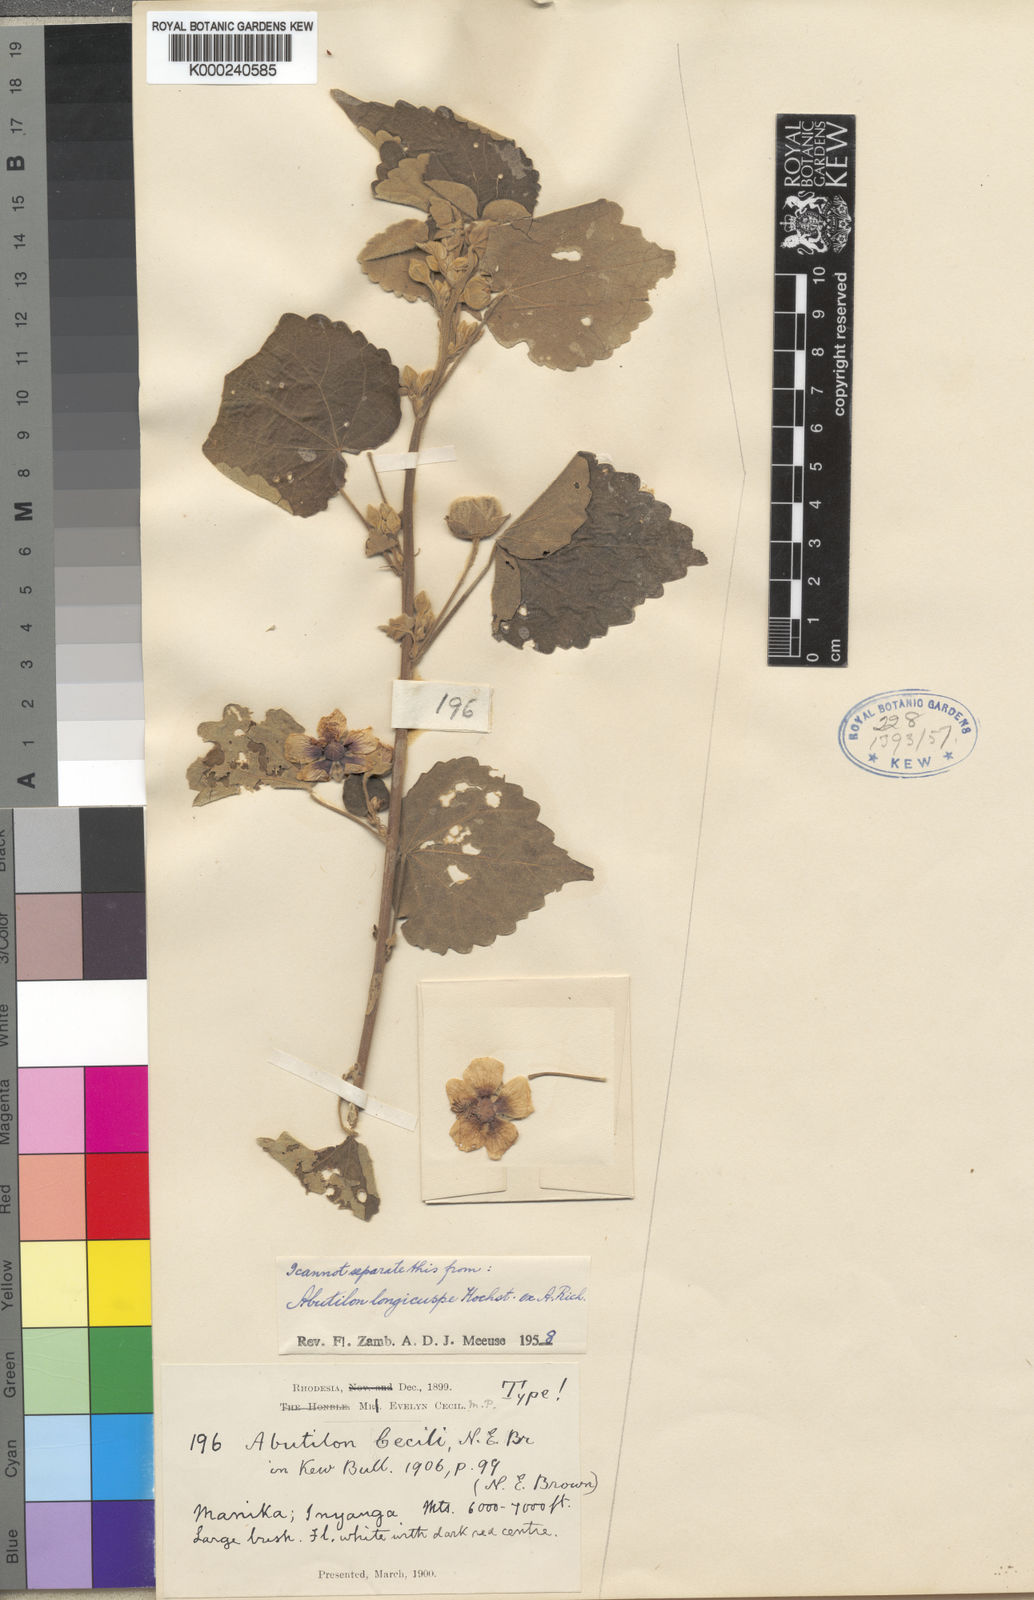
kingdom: Plantae
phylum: Tracheophyta
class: Magnoliopsida
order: Malvales
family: Malvaceae
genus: Abutilon
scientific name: Abutilon longicuspe
